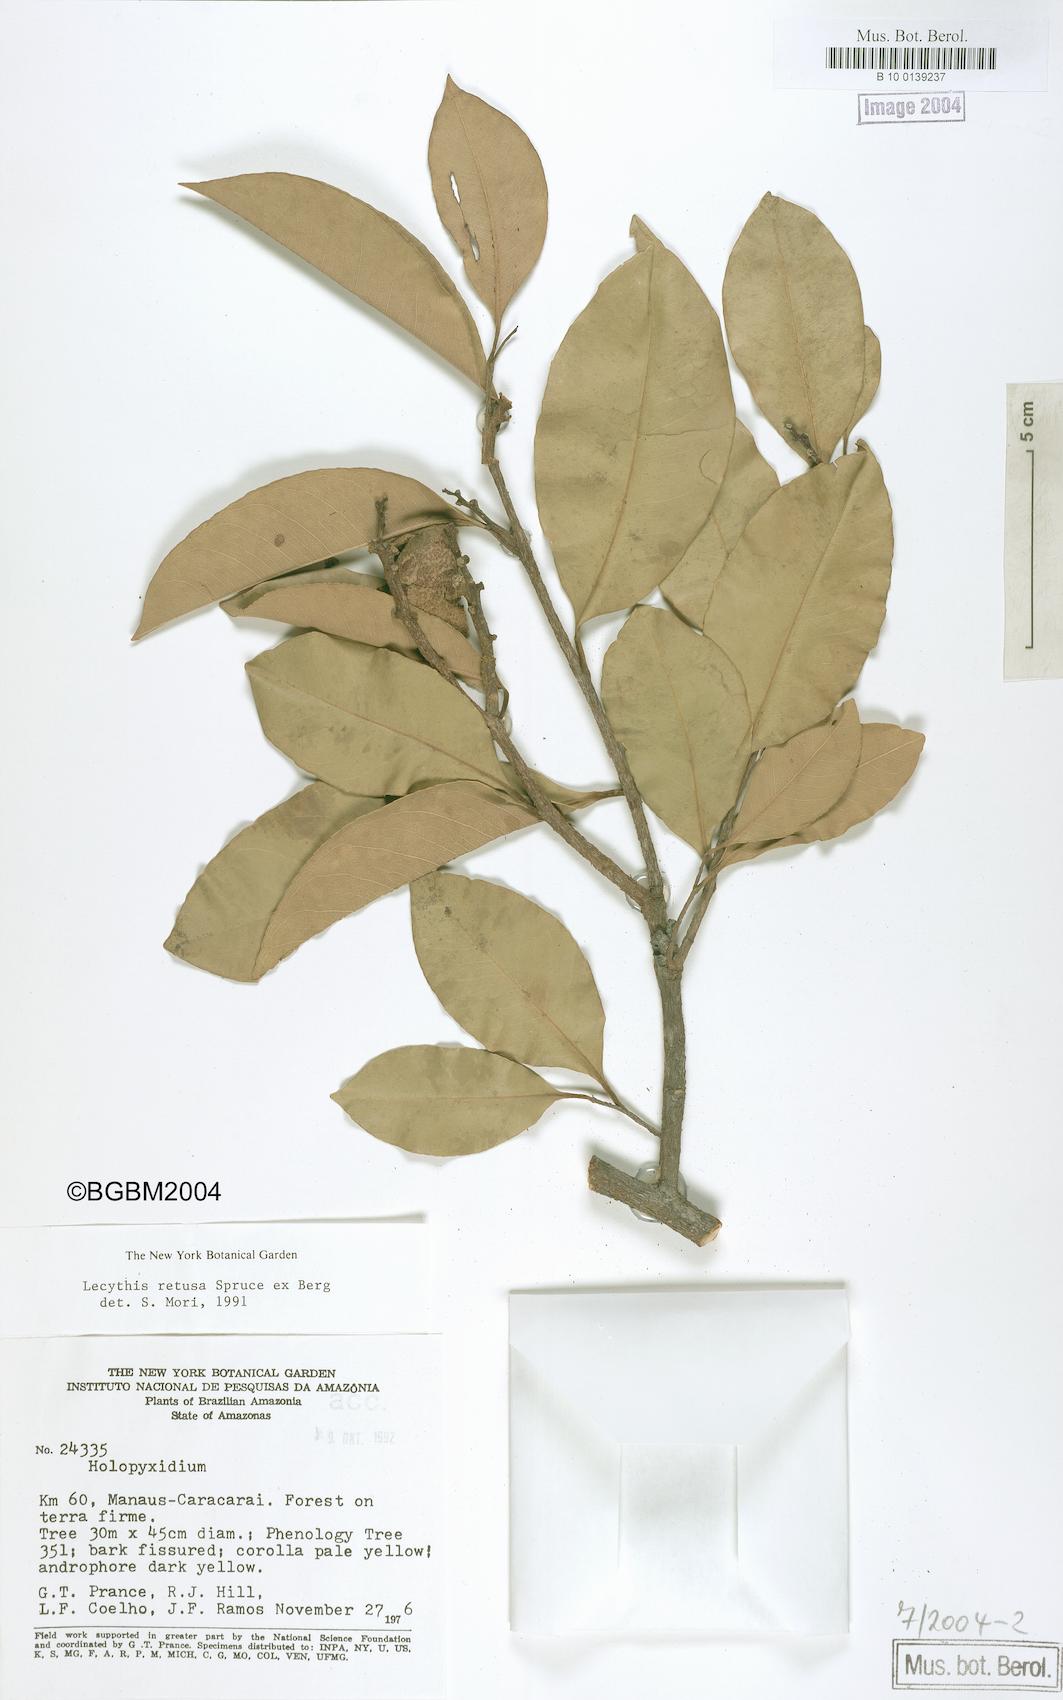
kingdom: Plantae
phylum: Tracheophyta
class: Magnoliopsida
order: Ericales
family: Lecythidaceae
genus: Lecythis
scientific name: Lecythis retusa
